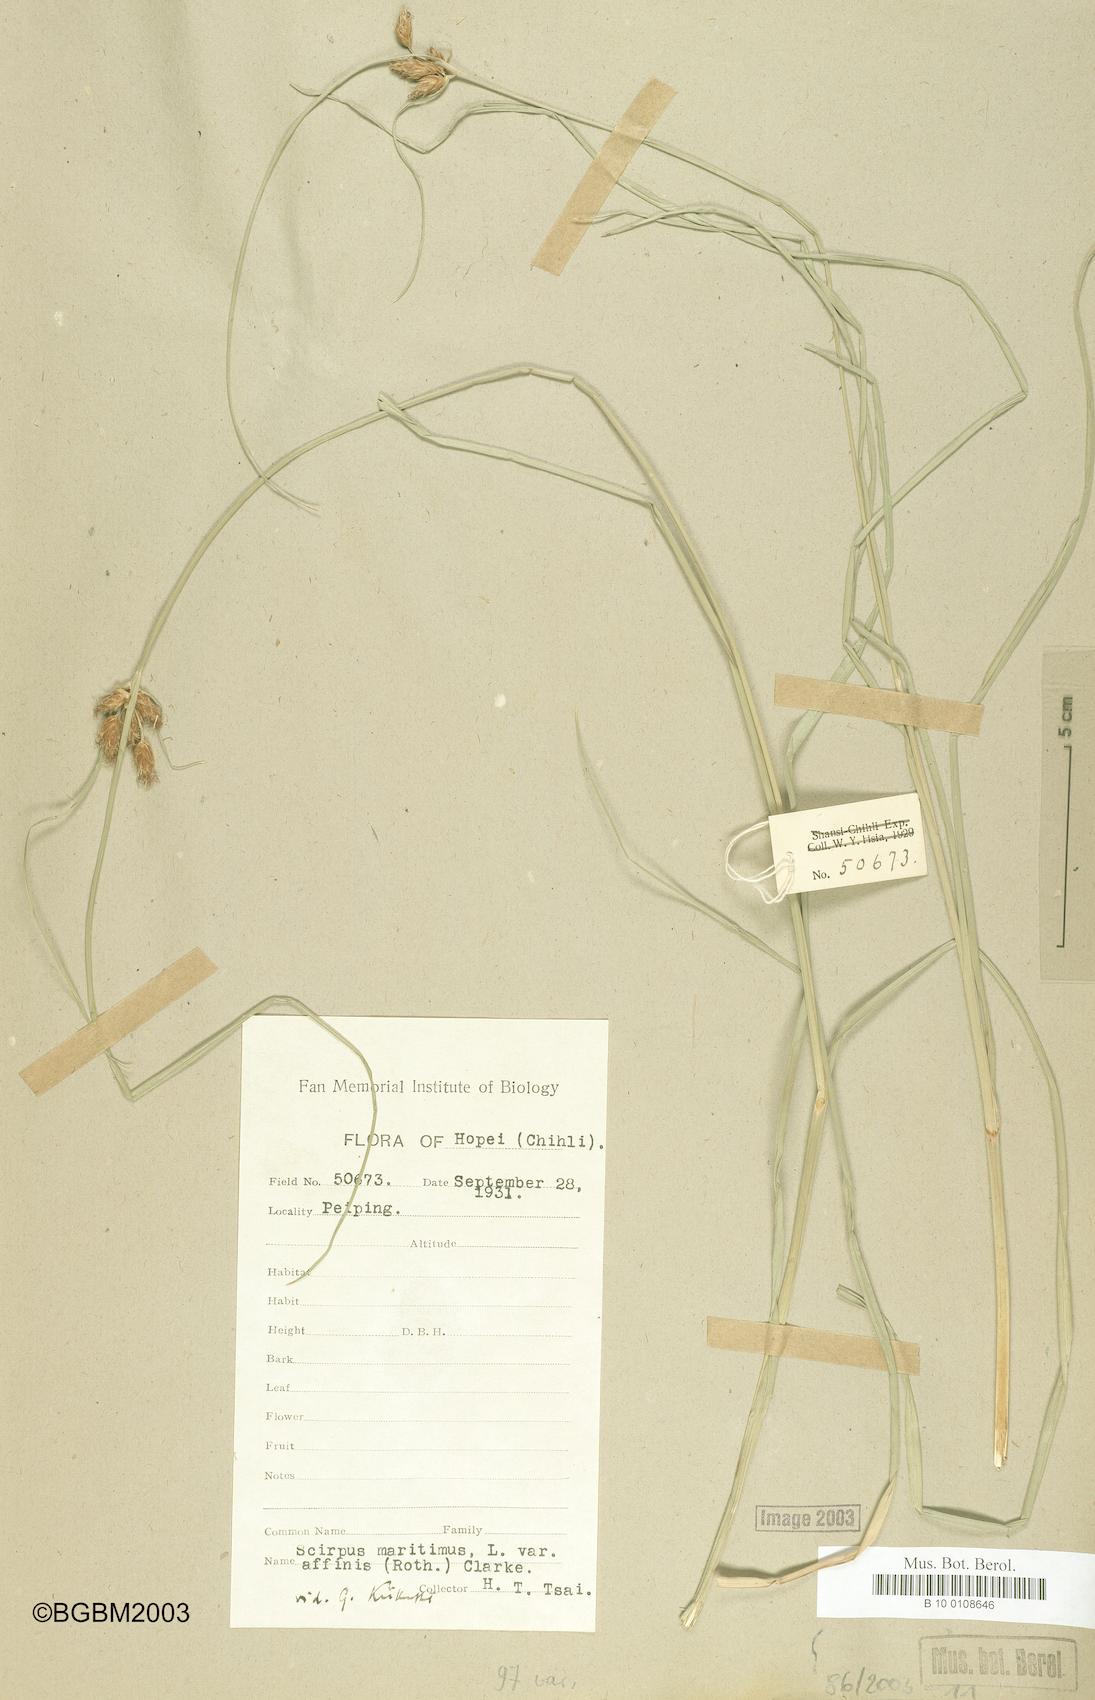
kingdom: Plantae
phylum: Tracheophyta
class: Liliopsida
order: Poales
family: Cyperaceae
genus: Bolboschoenus
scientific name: Bolboschoenus maritimus
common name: Sea club-rush
